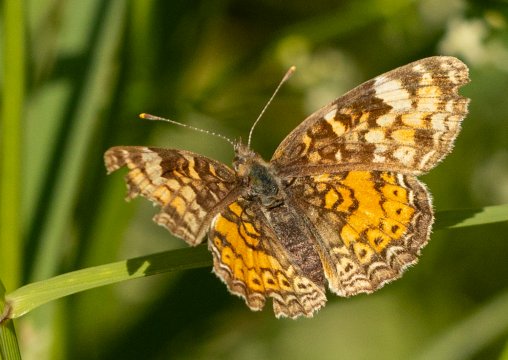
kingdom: Animalia
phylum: Arthropoda
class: Insecta
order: Lepidoptera
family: Nymphalidae
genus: Phyciodes
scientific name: Phyciodes
